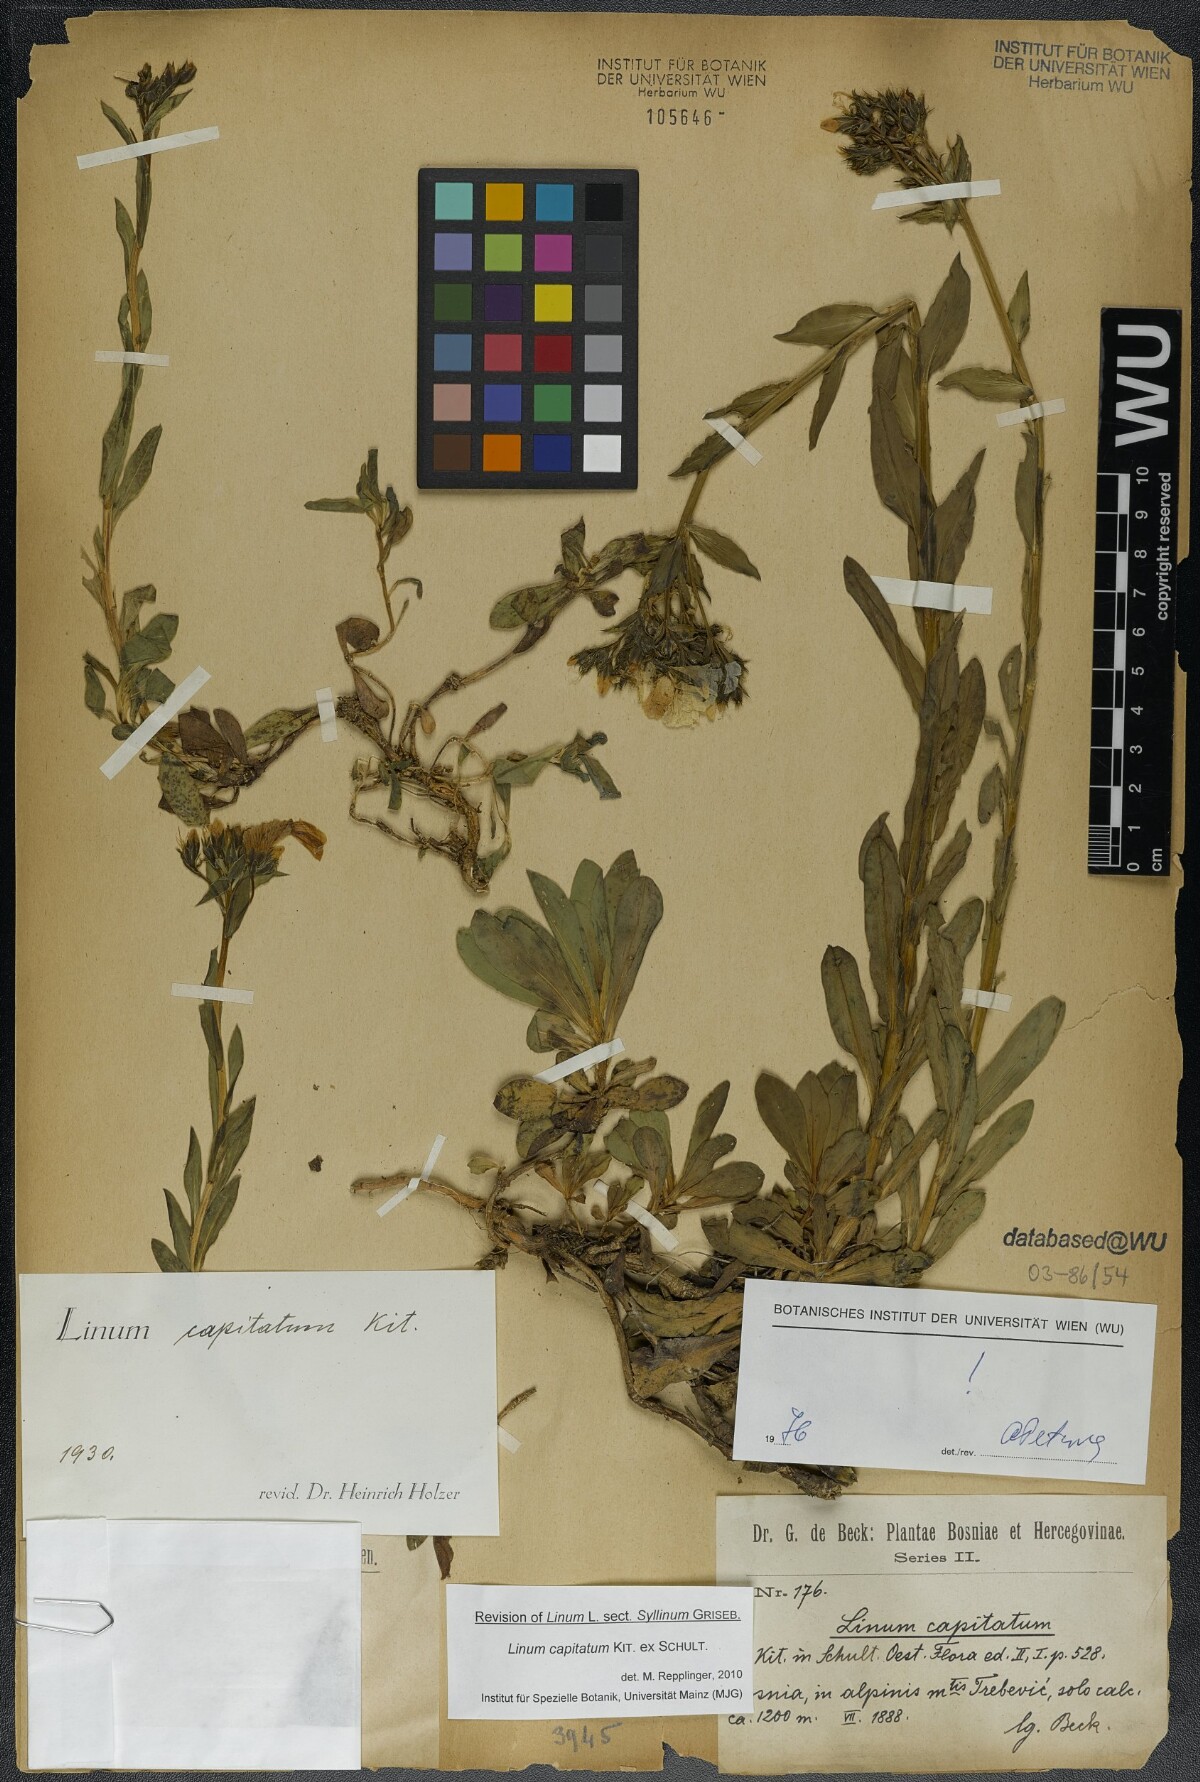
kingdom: Plantae
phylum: Tracheophyta
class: Magnoliopsida
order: Malpighiales
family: Linaceae
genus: Linum
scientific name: Linum capitatum
